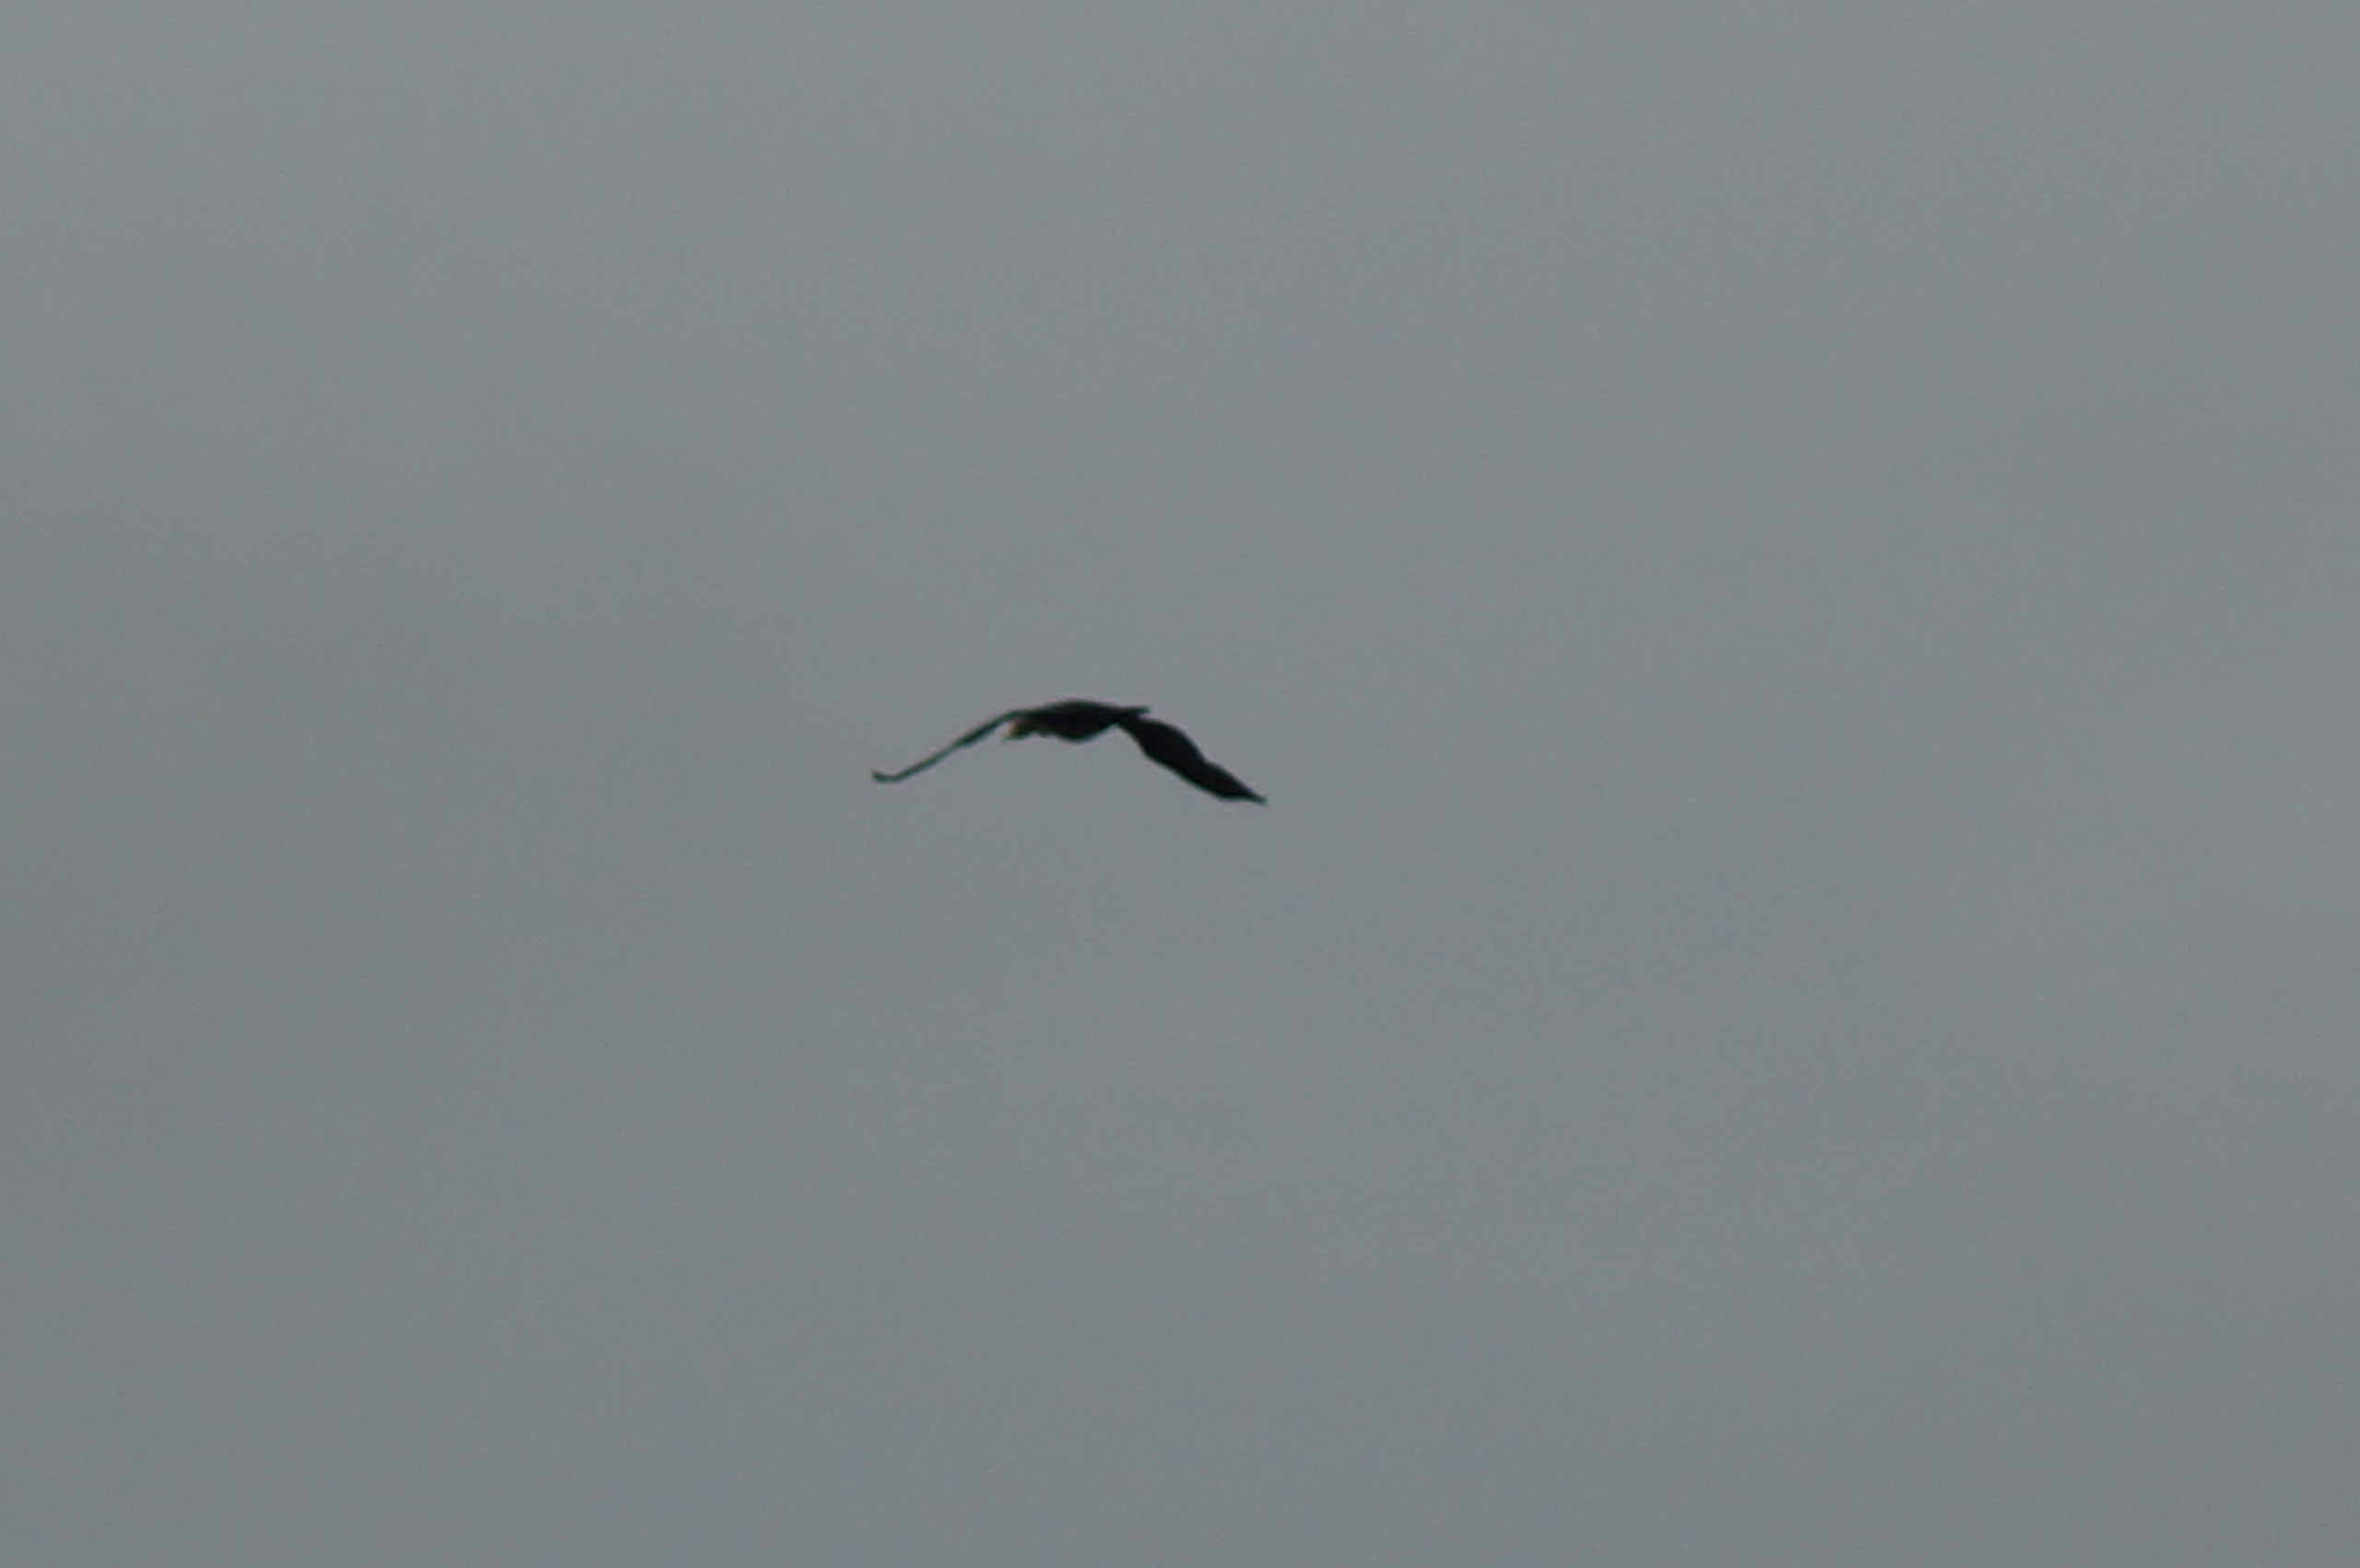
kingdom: Animalia
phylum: Chordata
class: Aves
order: Accipitriformes
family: Accipitridae
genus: Circus
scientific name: Circus aeruginosus
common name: Rørhøg
